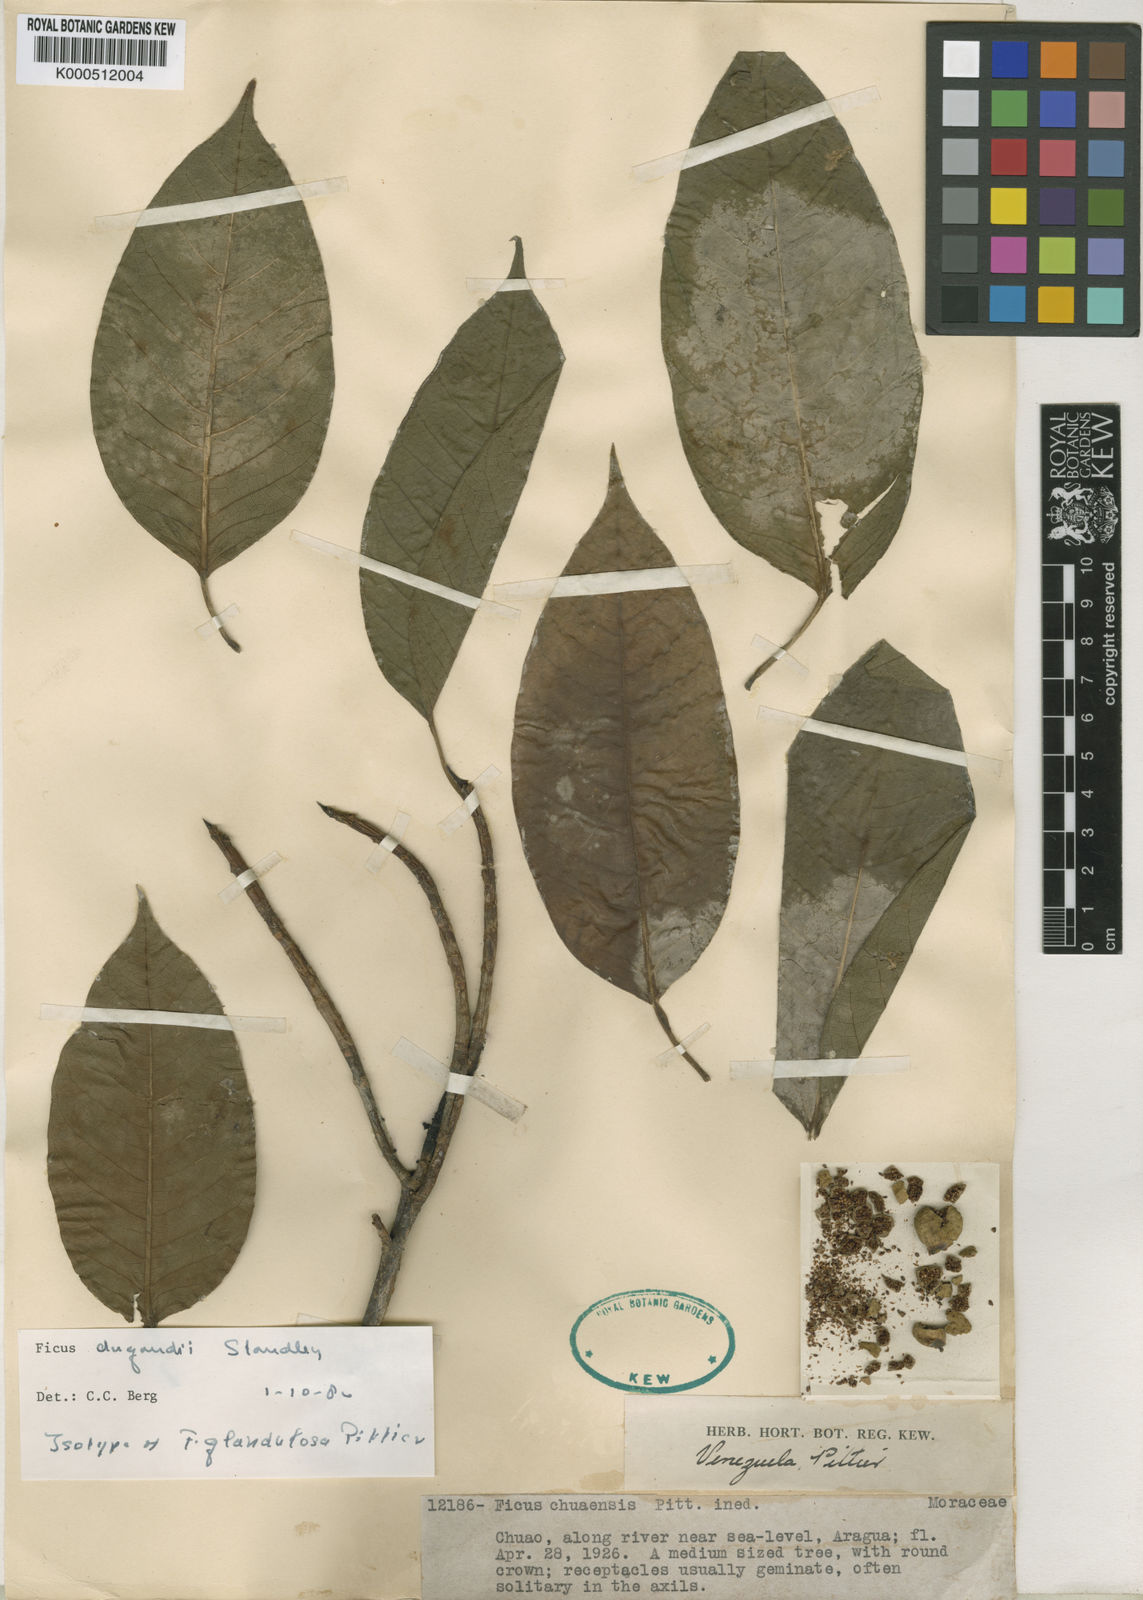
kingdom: Plantae
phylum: Tracheophyta
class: Magnoliopsida
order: Rosales
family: Moraceae
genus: Ficus
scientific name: Ficus citrifolia
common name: Strangler fig
